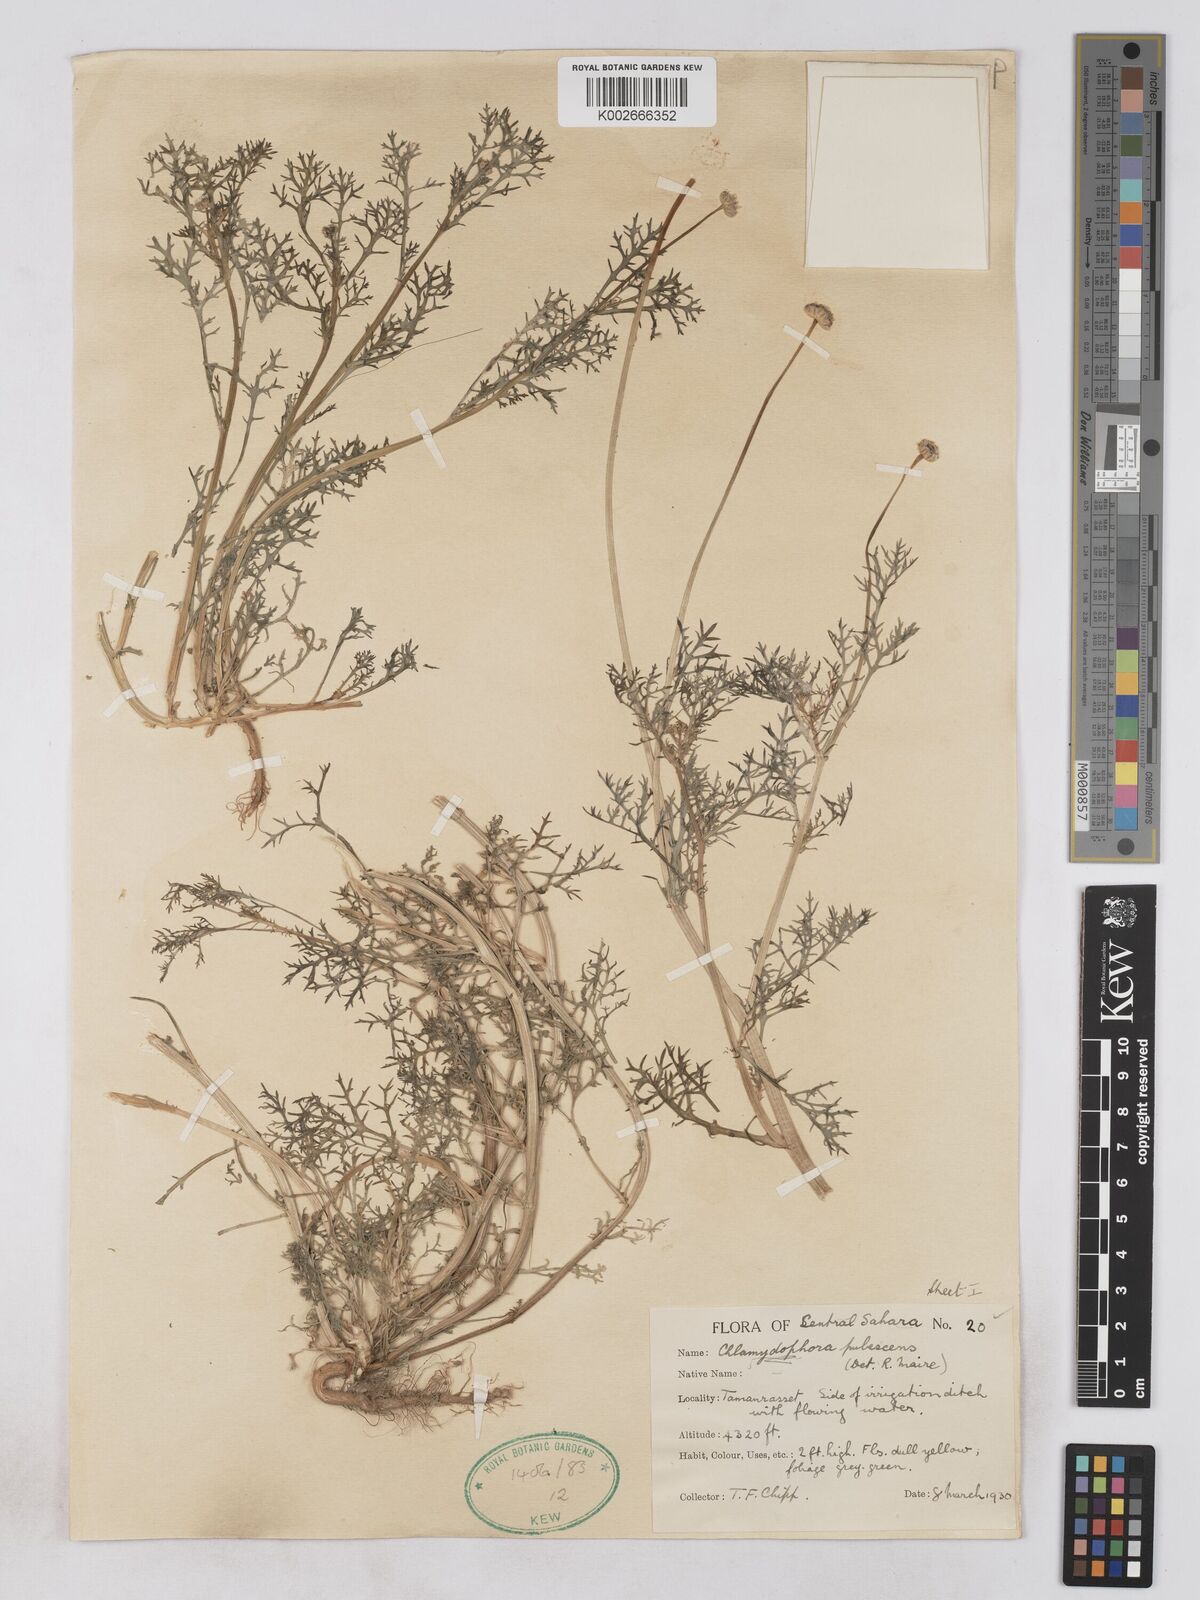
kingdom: Plantae
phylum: Tracheophyta
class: Magnoliopsida
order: Asterales
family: Asteraceae
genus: Otoglyphis
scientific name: Otoglyphis pubescens
